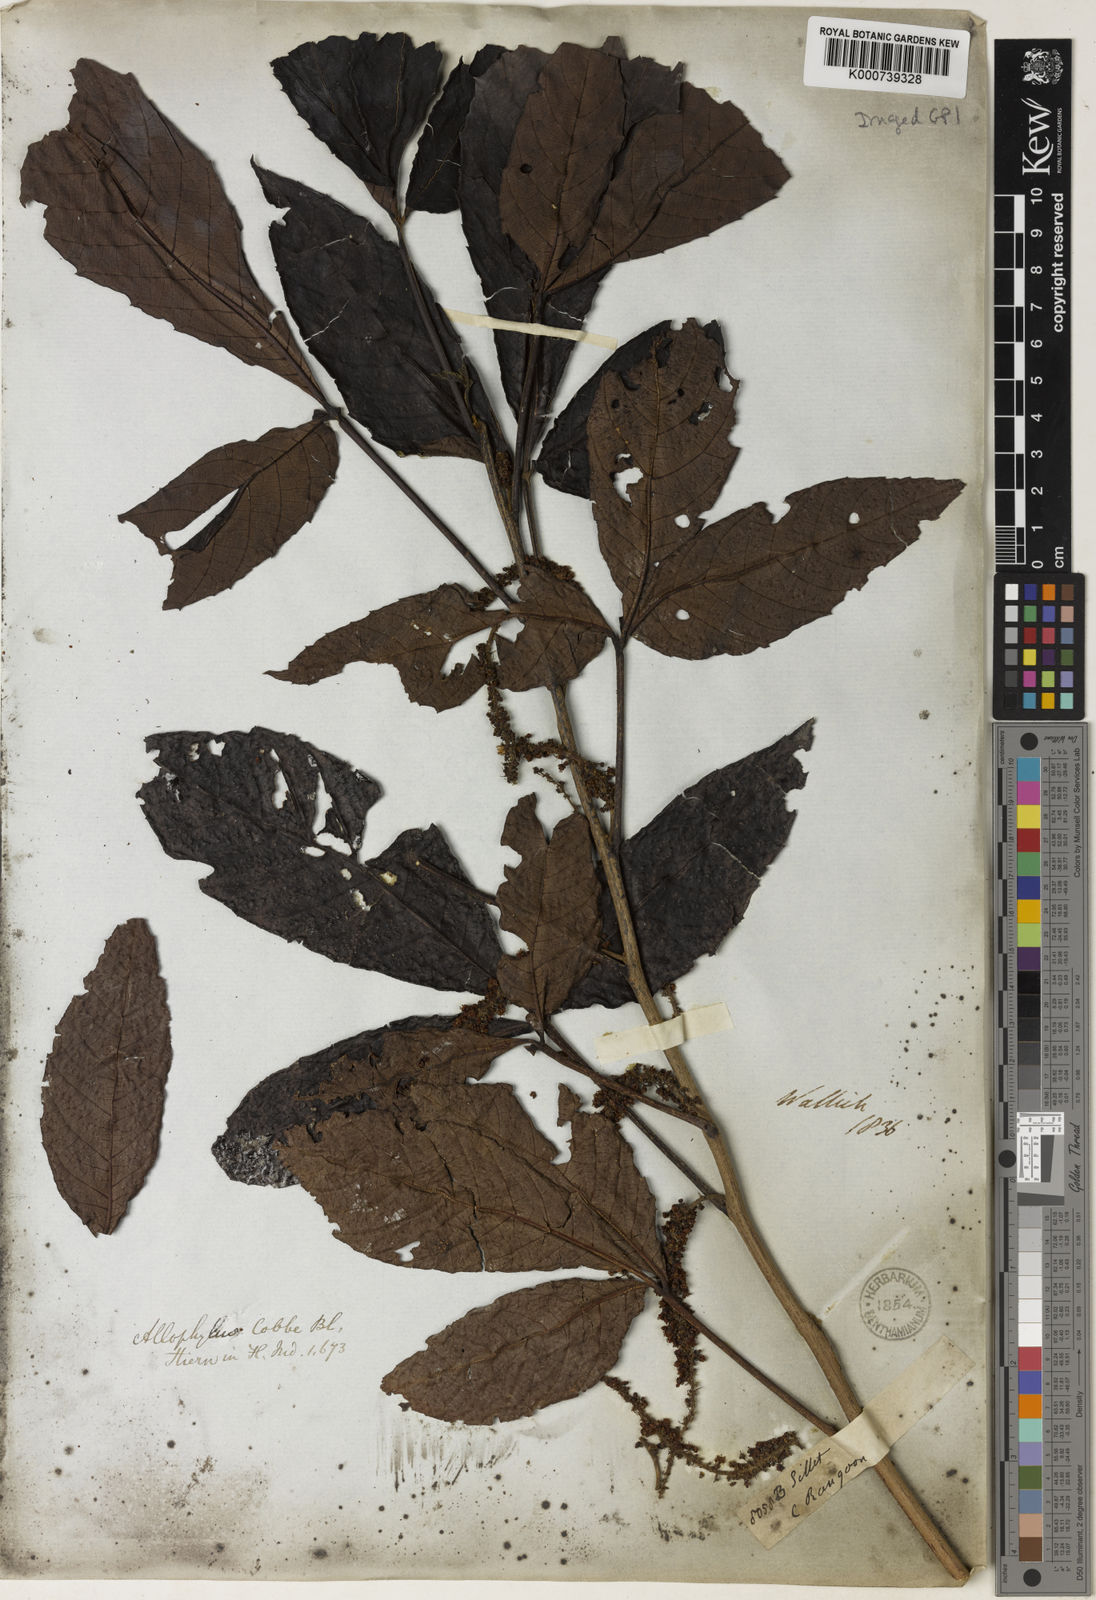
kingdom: Plantae
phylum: Tracheophyta
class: Magnoliopsida
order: Sapindales
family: Sapindaceae
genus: Allophylus
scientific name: Allophylus villosus
